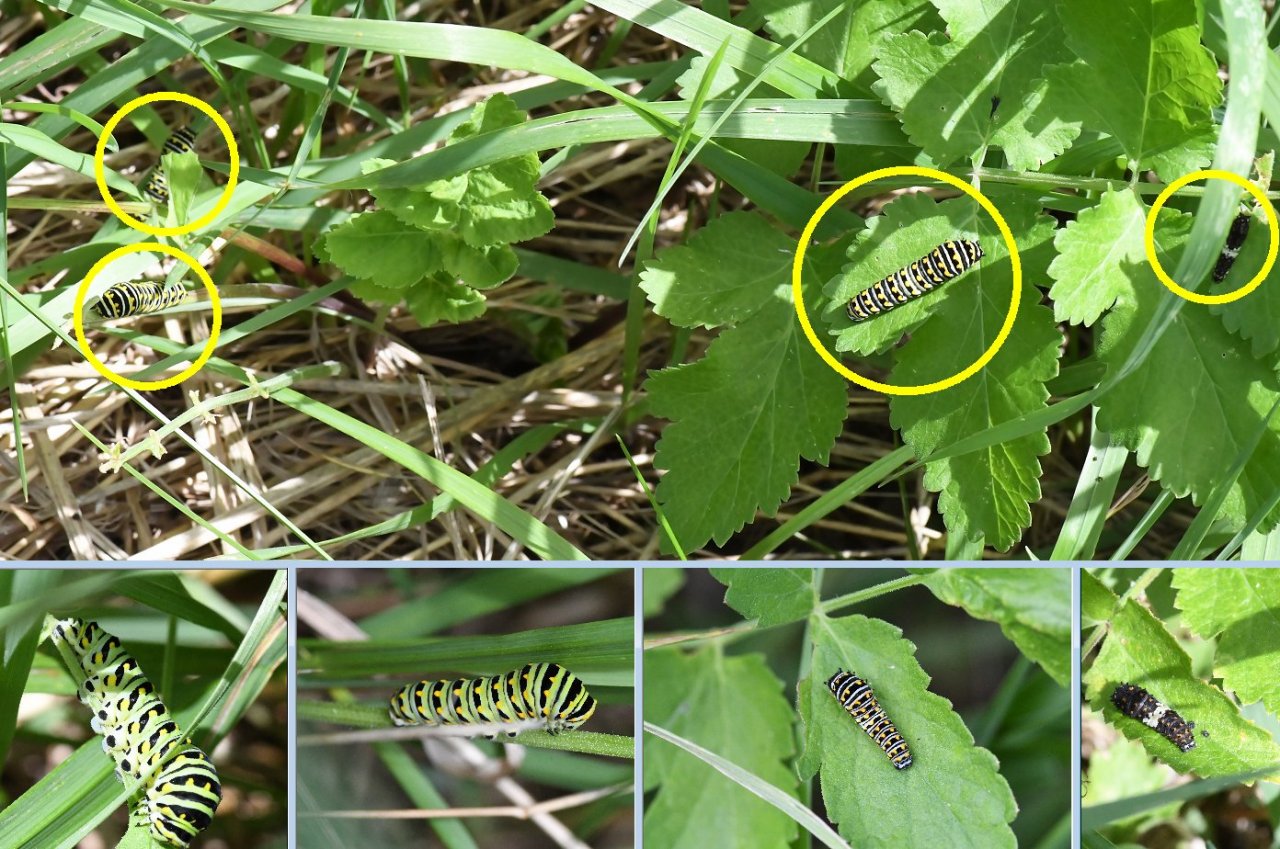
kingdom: Animalia
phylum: Arthropoda
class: Insecta
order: Lepidoptera
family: Papilionidae
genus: Papilio
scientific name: Papilio polyxenes
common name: Black Swallowtail
